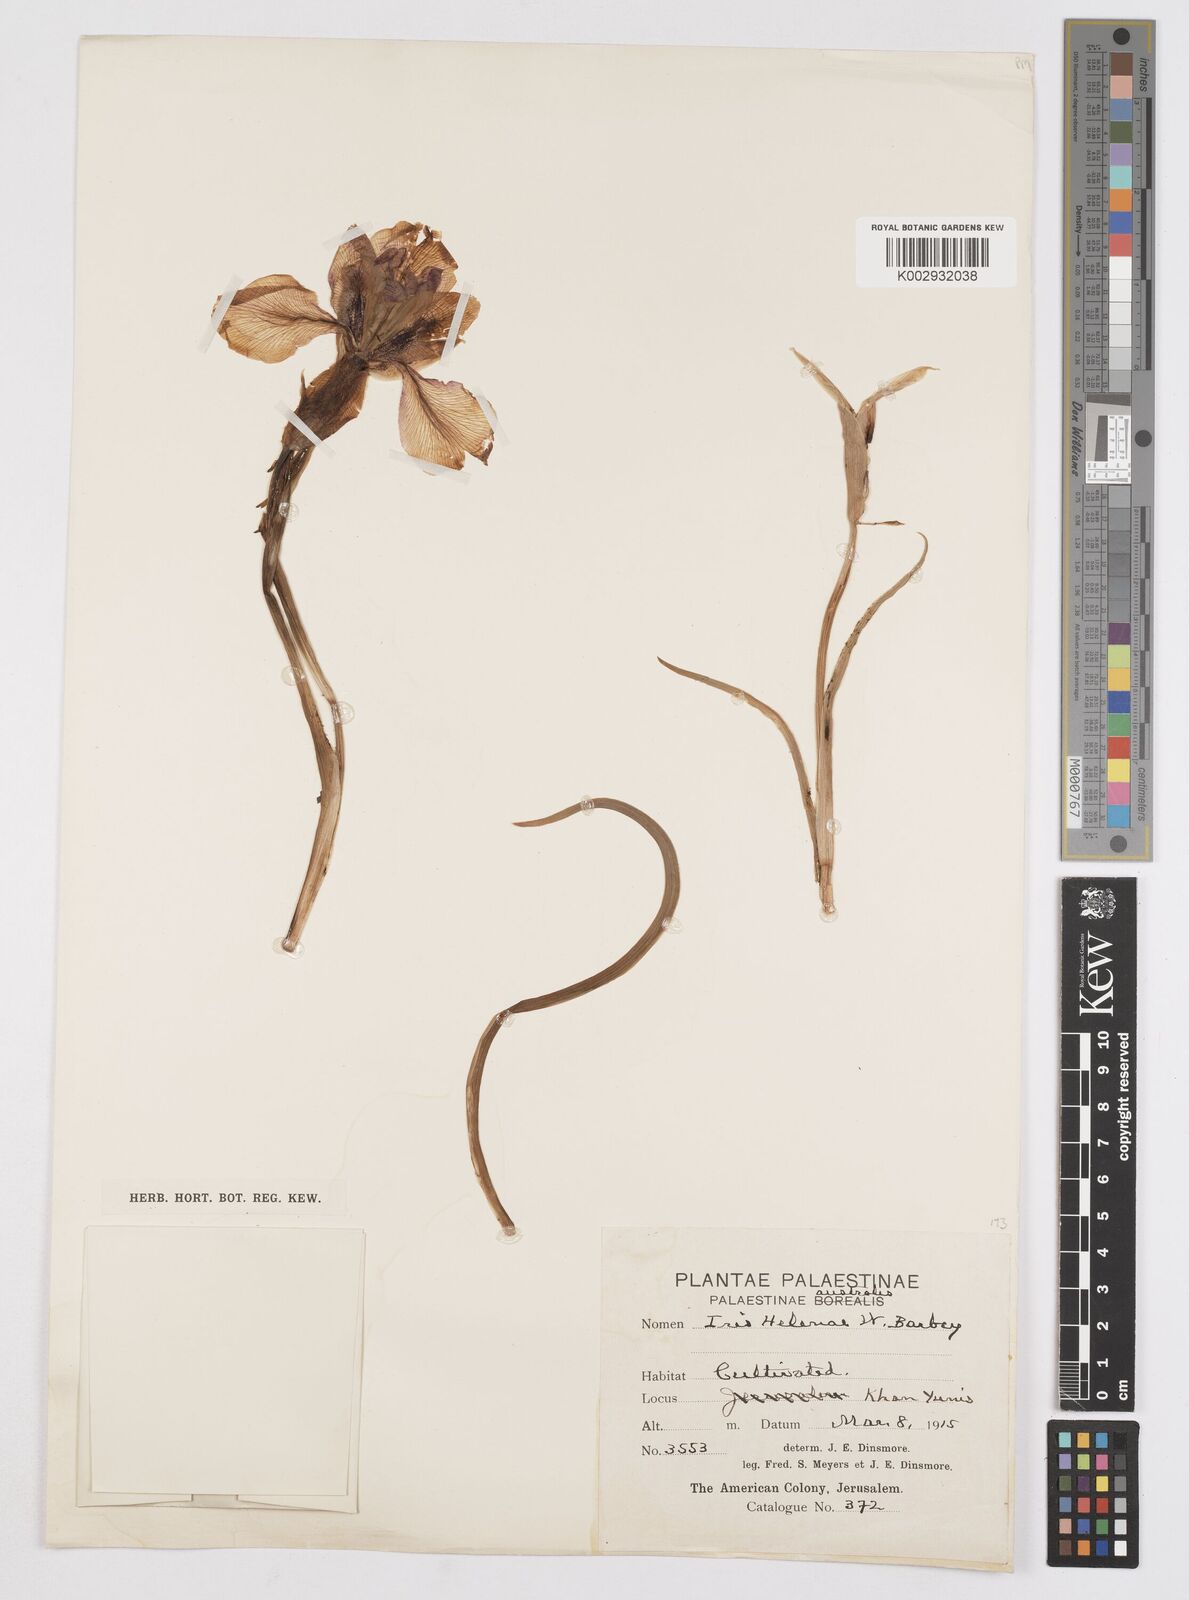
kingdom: Plantae
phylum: Tracheophyta
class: Liliopsida
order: Asparagales
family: Iridaceae
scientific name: Iridaceae
